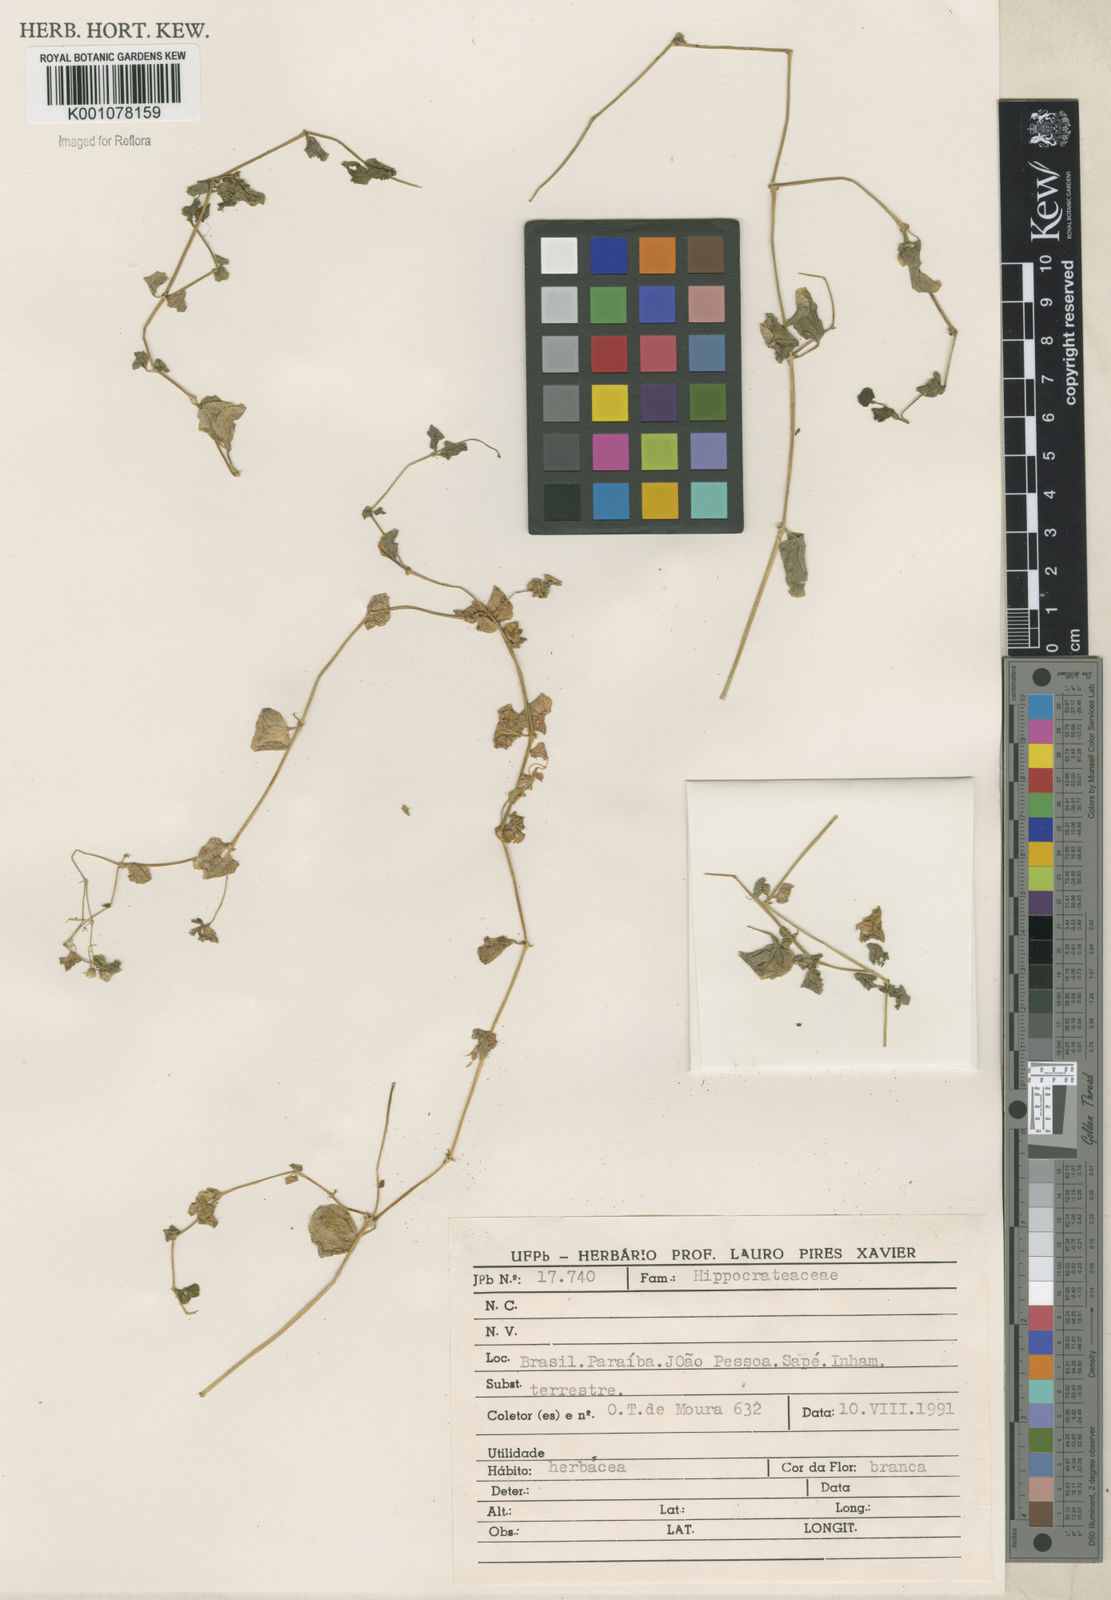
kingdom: Plantae
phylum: Tracheophyta
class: Magnoliopsida
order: Caryophyllales
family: Caryophyllaceae
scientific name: Caryophyllaceae
